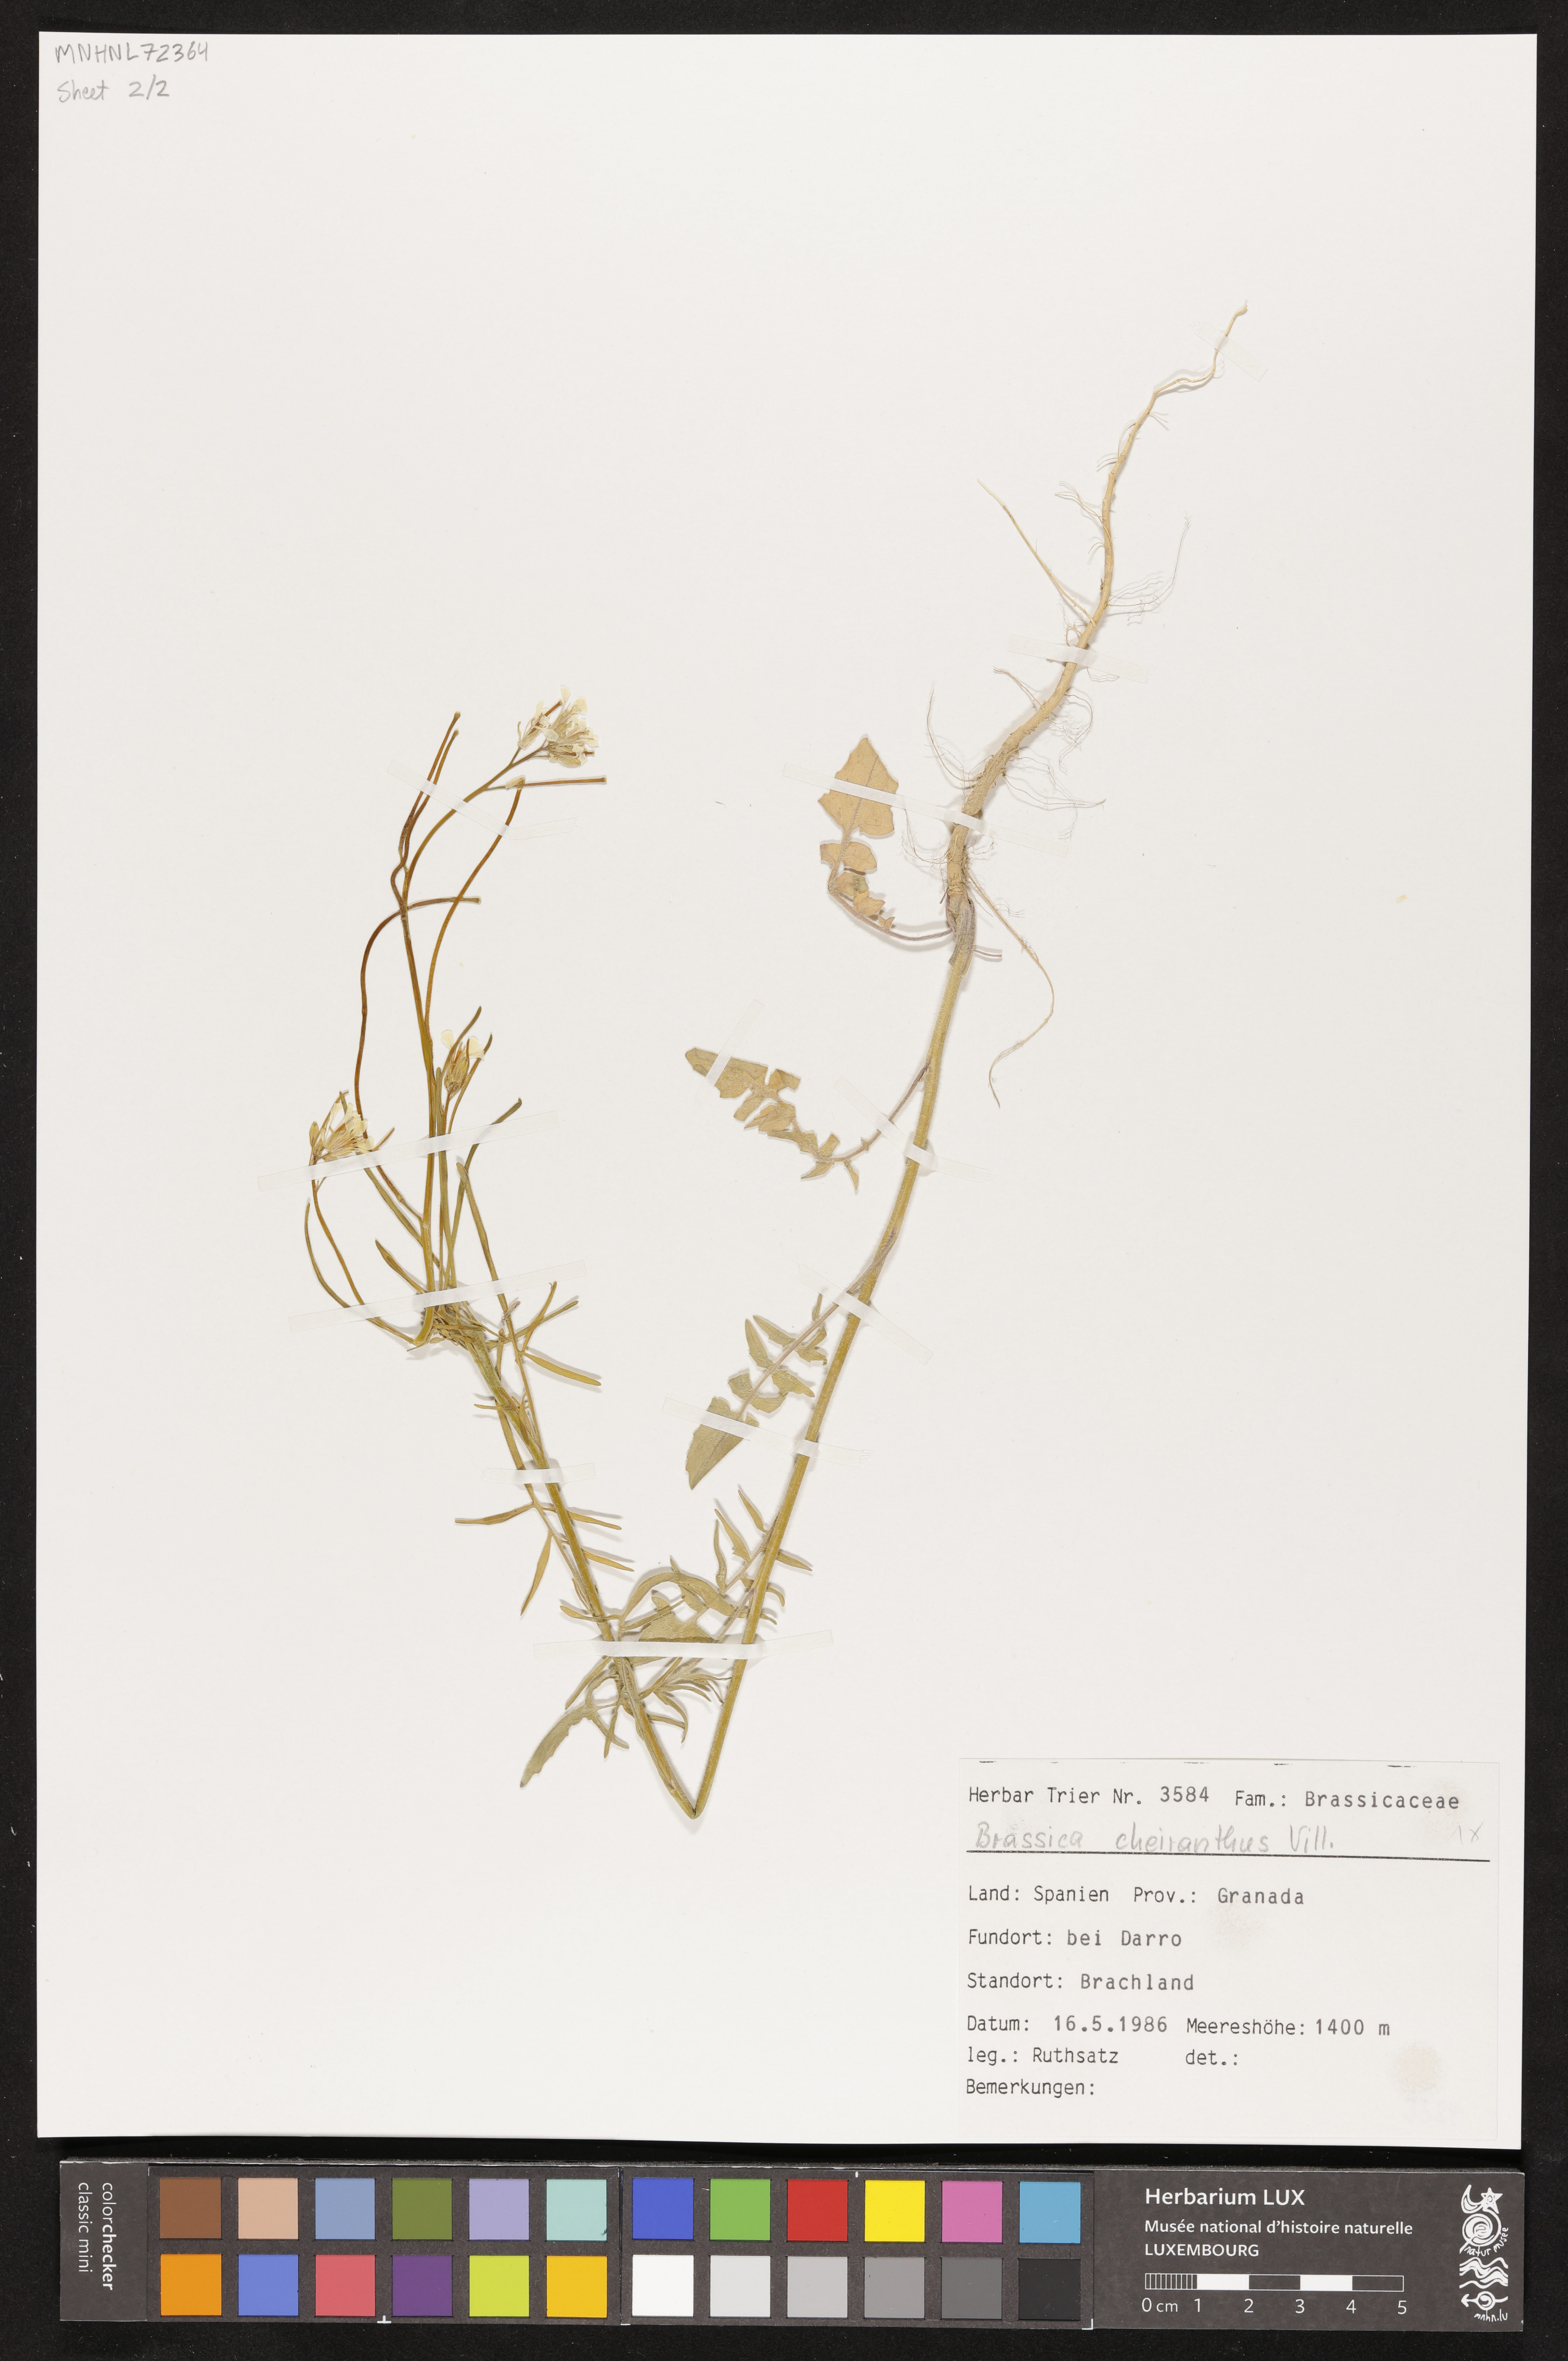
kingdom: Plantae
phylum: Tracheophyta
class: Magnoliopsida
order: Brassicales
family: Brassicaceae
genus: Coincya
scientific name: Coincya monensis
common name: Star-mustard
